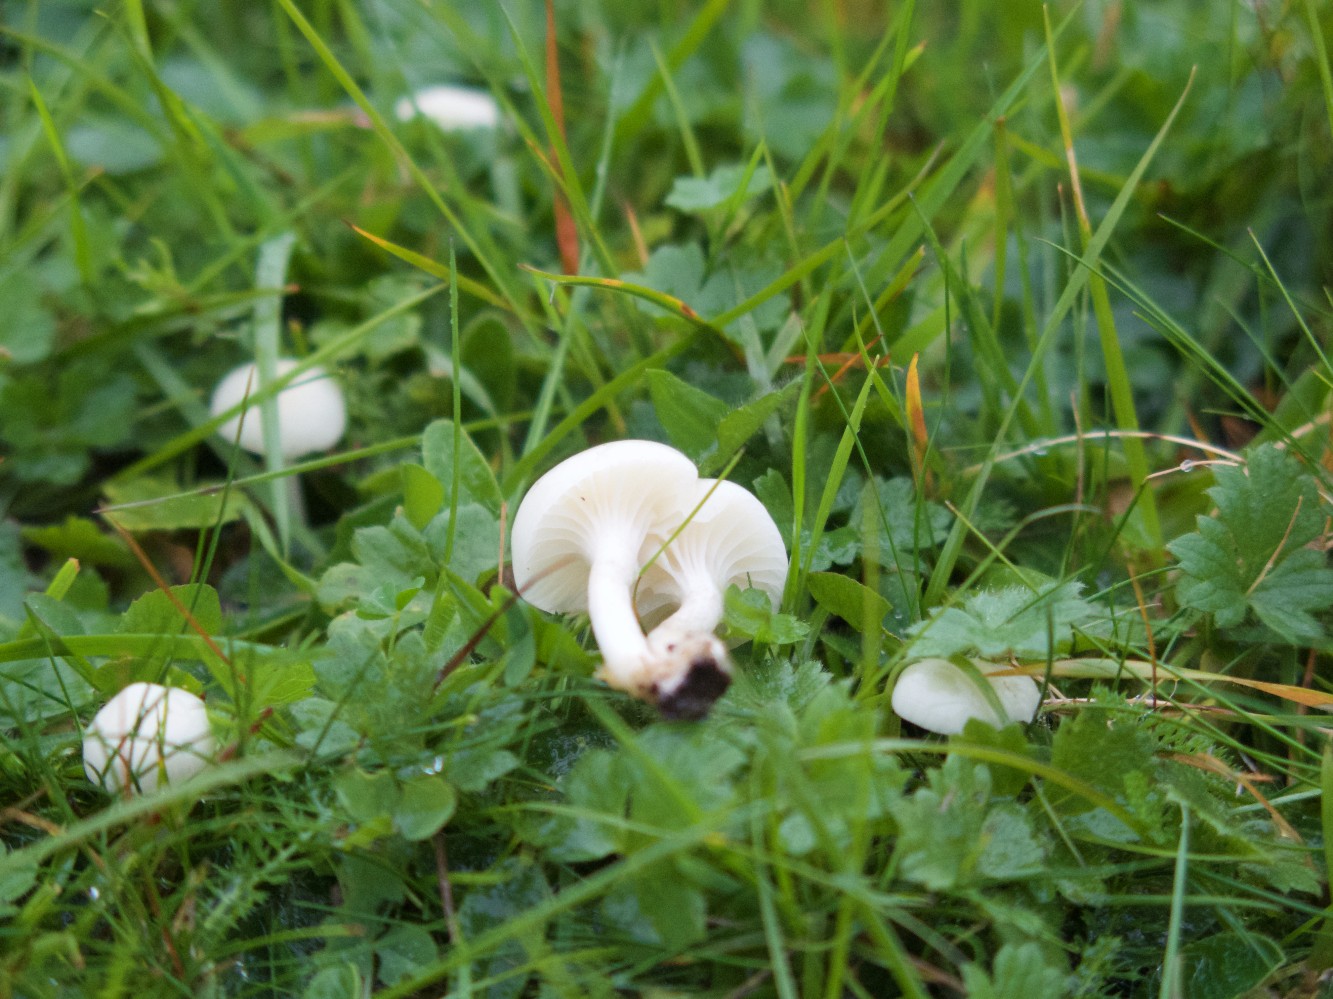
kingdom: Fungi
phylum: Basidiomycota
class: Agaricomycetes
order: Agaricales
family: Hygrophoraceae
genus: Cuphophyllus
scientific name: Cuphophyllus virgineus
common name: snehvid vokshat
